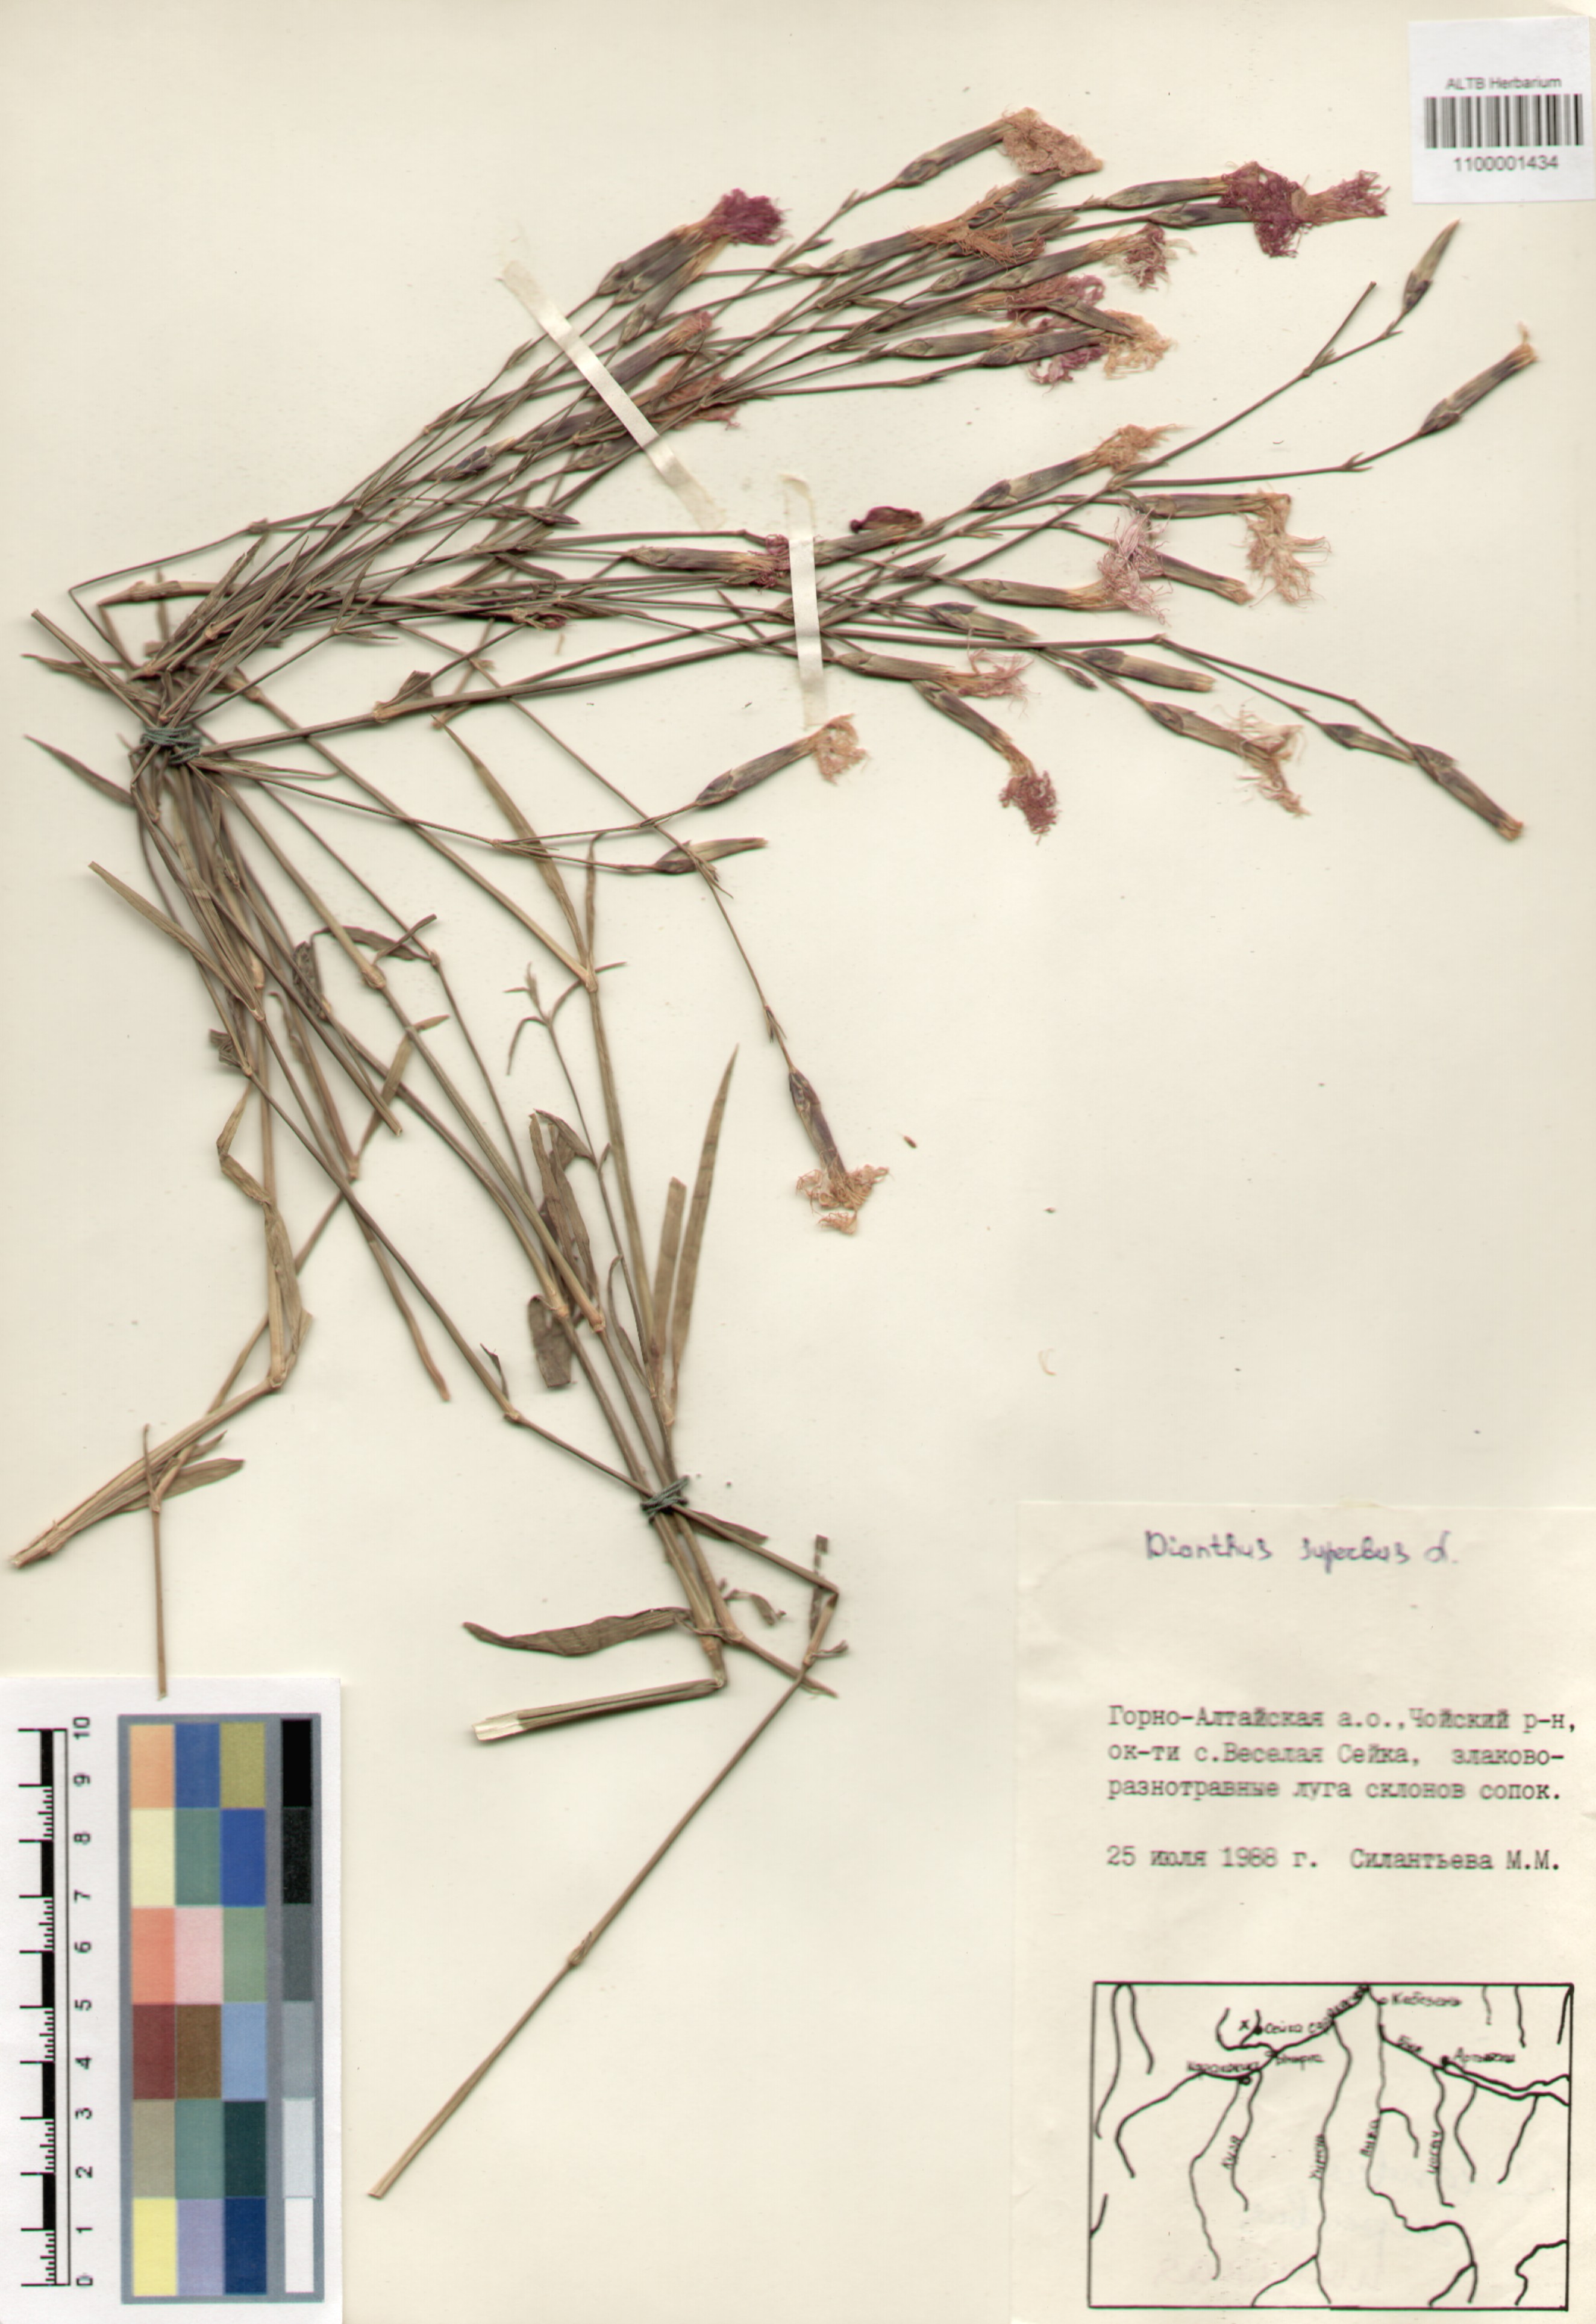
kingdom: Plantae
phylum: Tracheophyta
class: Magnoliopsida
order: Caryophyllales
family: Caryophyllaceae
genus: Dianthus
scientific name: Dianthus superbus
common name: Fringed pink
